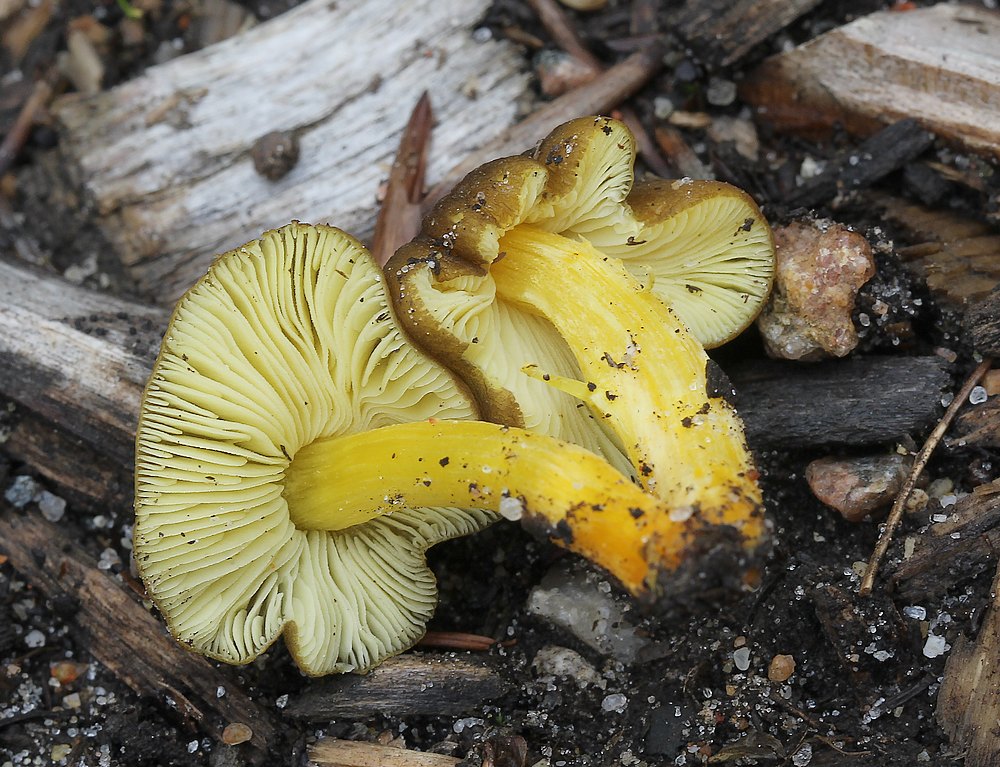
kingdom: Fungi
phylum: Basidiomycota
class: Agaricomycetes
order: Agaricales
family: Pluteaceae
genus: Pluteus
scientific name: Pluteus romellii
